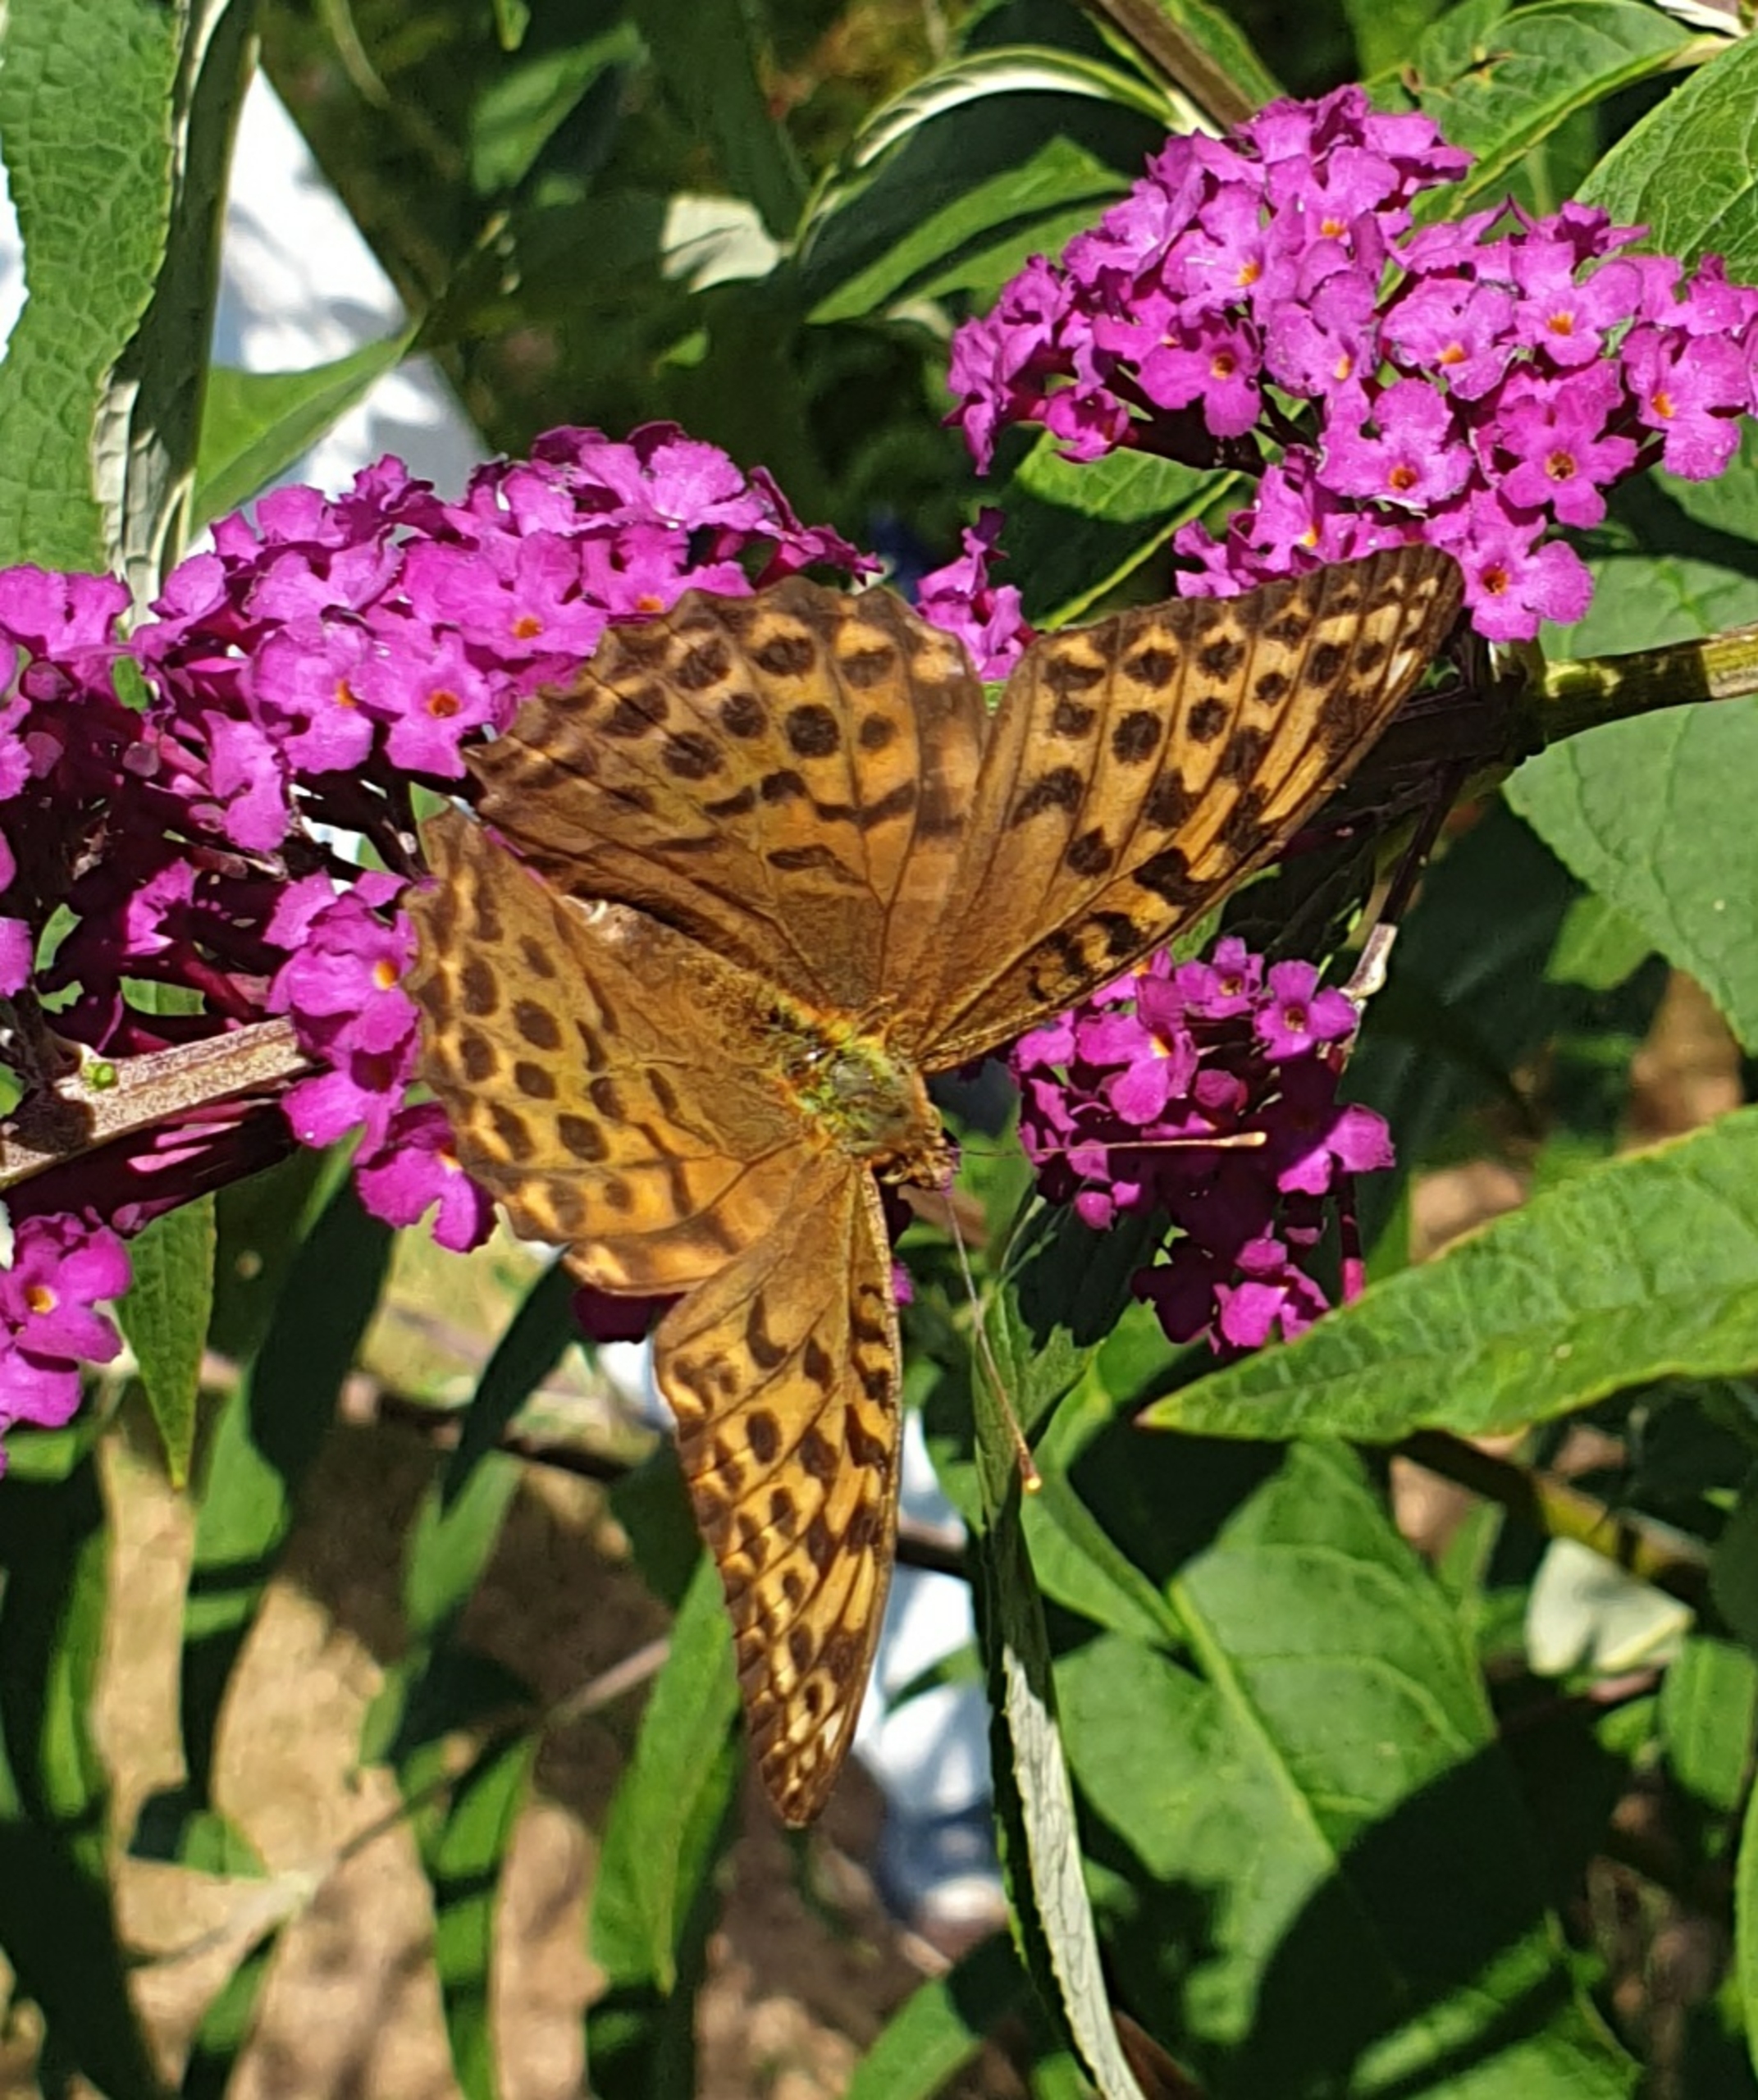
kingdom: Animalia
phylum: Arthropoda
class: Insecta
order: Lepidoptera
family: Nymphalidae
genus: Argynnis
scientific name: Argynnis paphia
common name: Kejserkåbe
